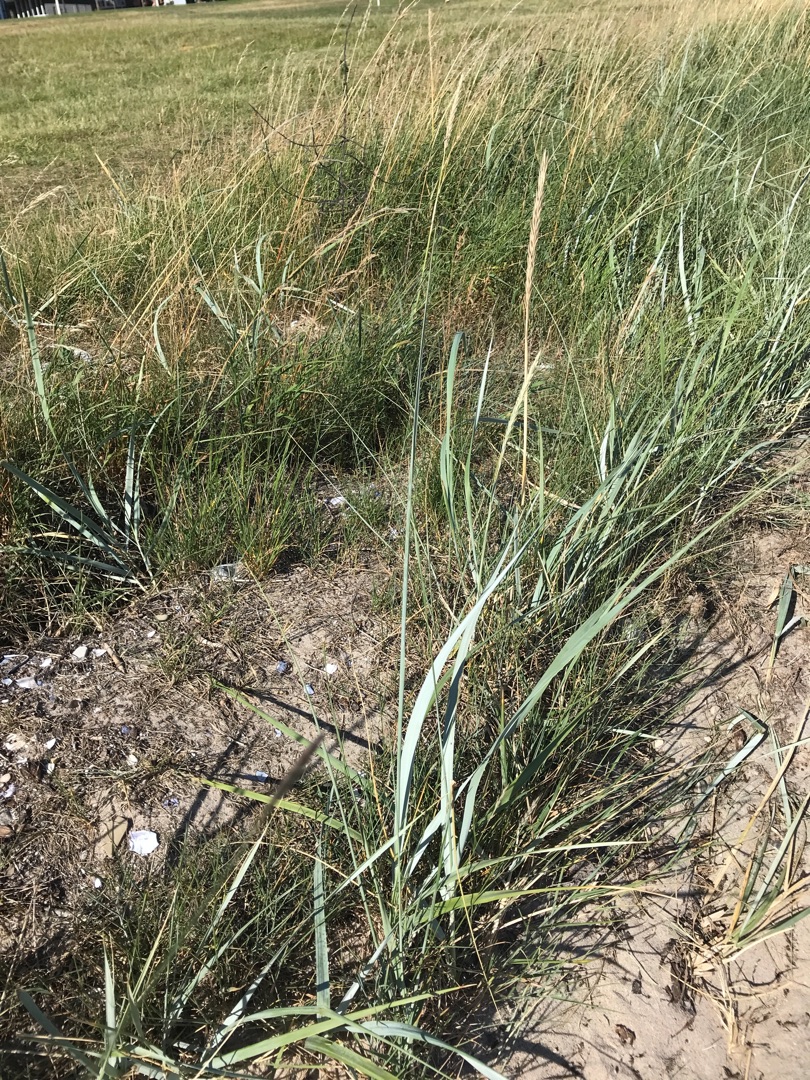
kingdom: Plantae
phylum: Tracheophyta
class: Liliopsida
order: Poales
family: Poaceae
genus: Leymus
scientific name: Leymus arenarius
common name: Marehalm
